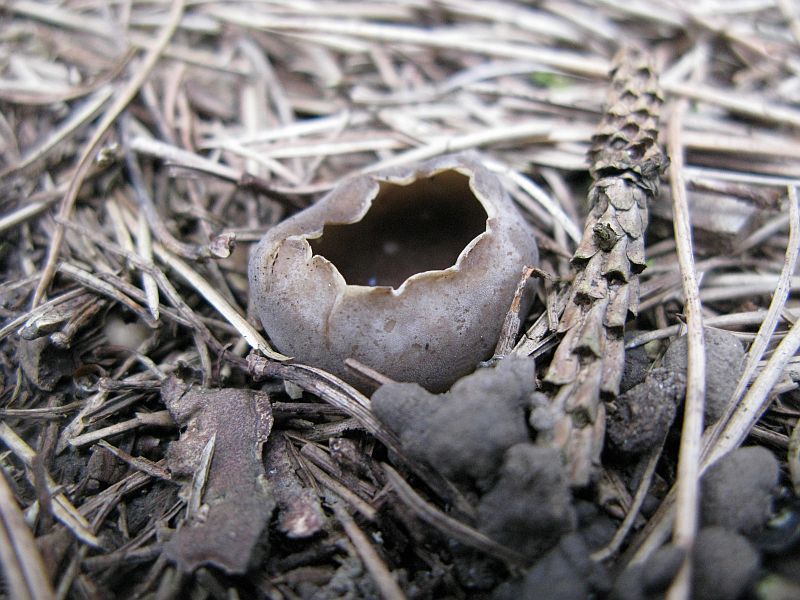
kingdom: Fungi
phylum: Ascomycota
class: Pezizomycetes
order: Pezizales
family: Helvellaceae
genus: Dissingia
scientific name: Dissingia leucomelaena
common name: sorthvid foldhat
